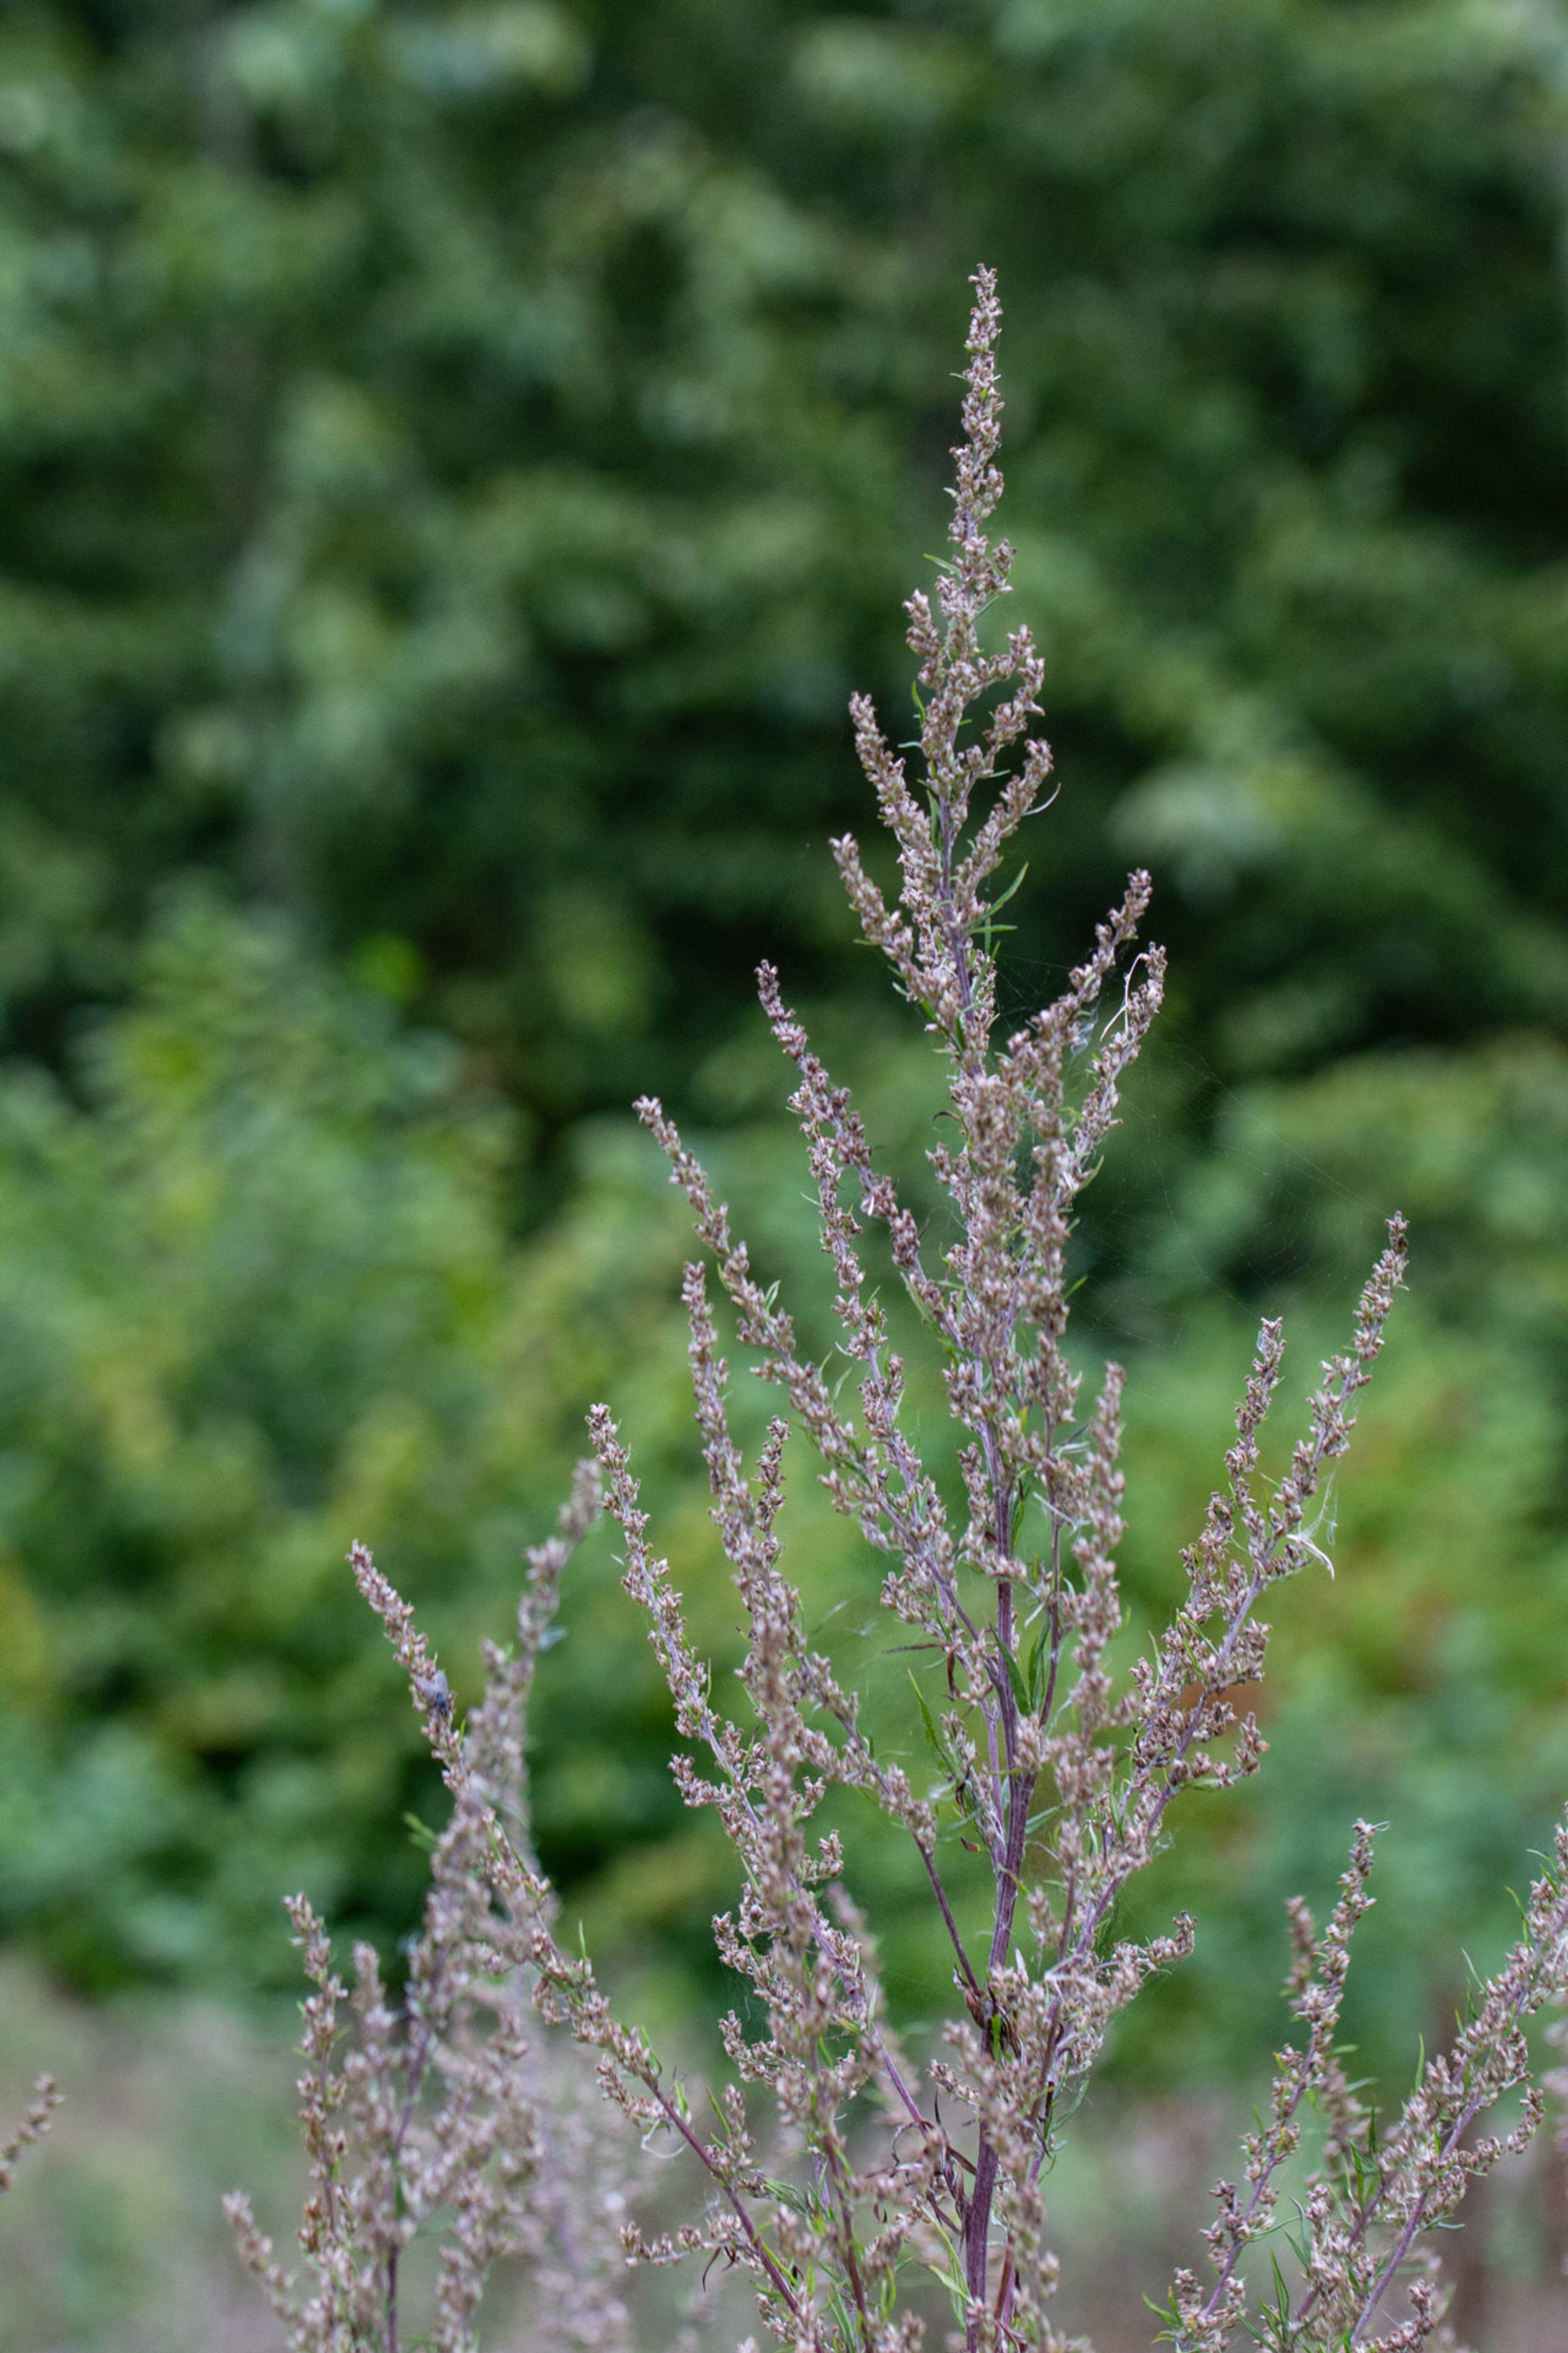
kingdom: Plantae
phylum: Tracheophyta
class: Magnoliopsida
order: Asterales
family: Asteraceae
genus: Artemisia
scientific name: Artemisia vulgaris
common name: Grå-bynke
